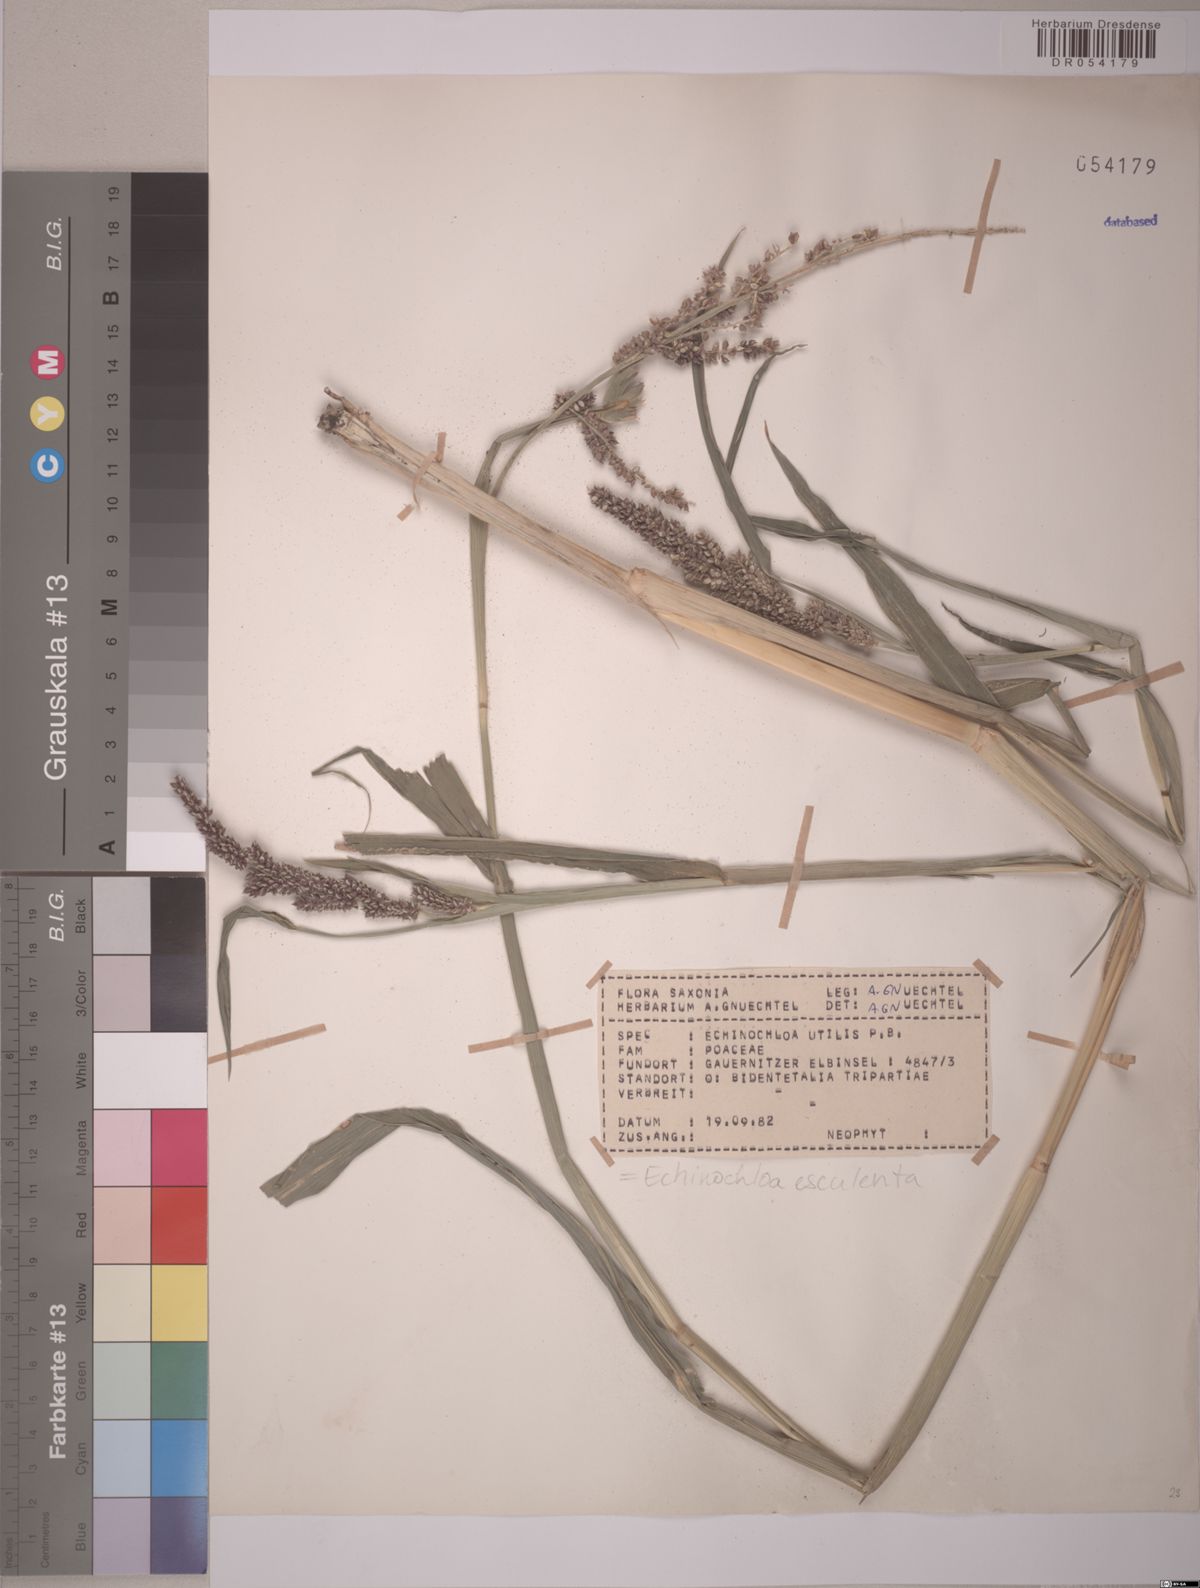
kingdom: Plantae
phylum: Tracheophyta
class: Liliopsida
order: Poales
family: Poaceae
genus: Echinochloa
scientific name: Echinochloa crus-galli
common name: Cockspur
